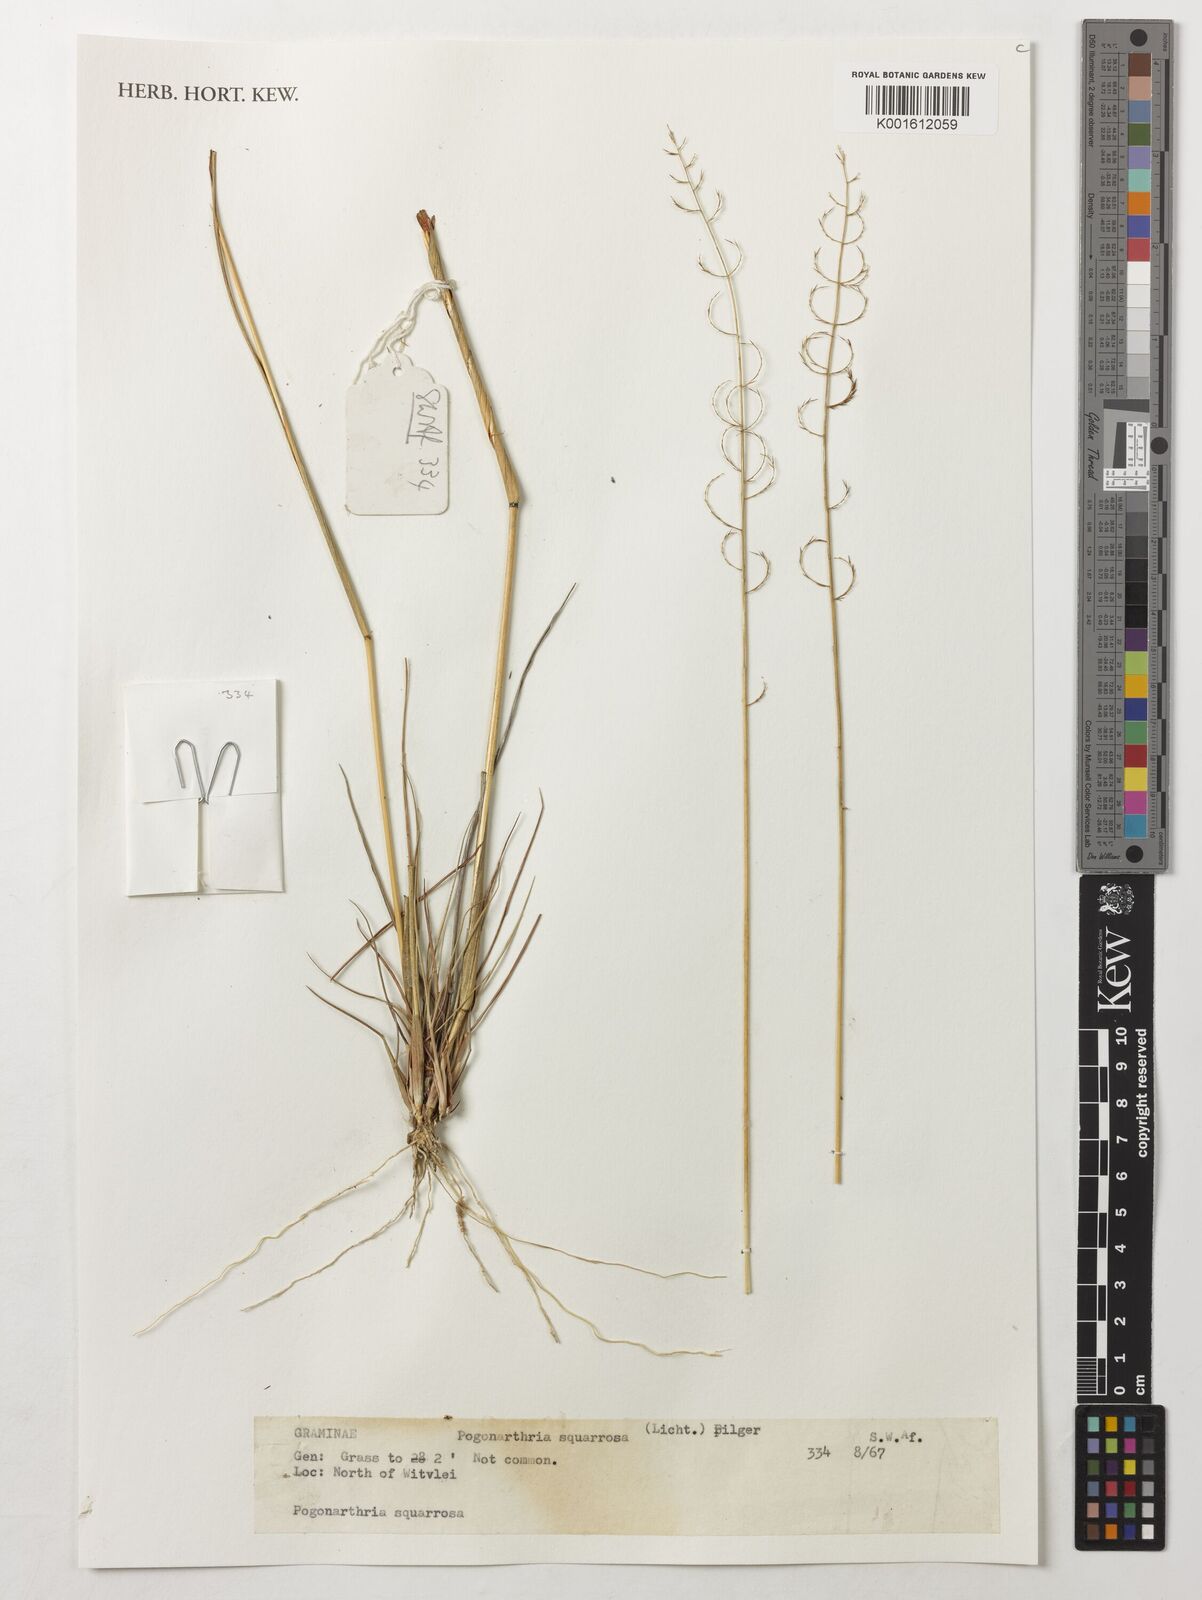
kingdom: Plantae
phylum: Tracheophyta
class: Liliopsida
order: Poales
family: Poaceae
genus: Pogonarthria
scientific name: Pogonarthria squarrosa
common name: Grass
